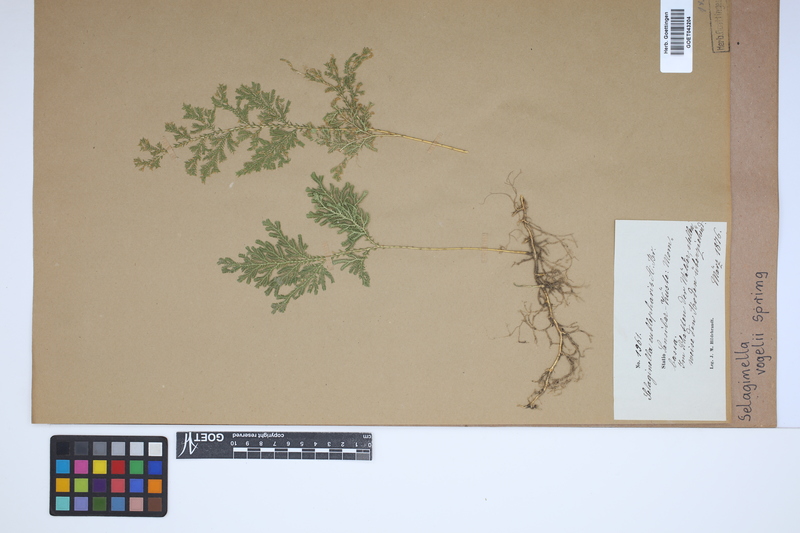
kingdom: Plantae
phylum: Tracheophyta
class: Lycopodiopsida
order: Selaginellales
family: Selaginellaceae
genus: Selaginella
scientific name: Selaginella vogelii
